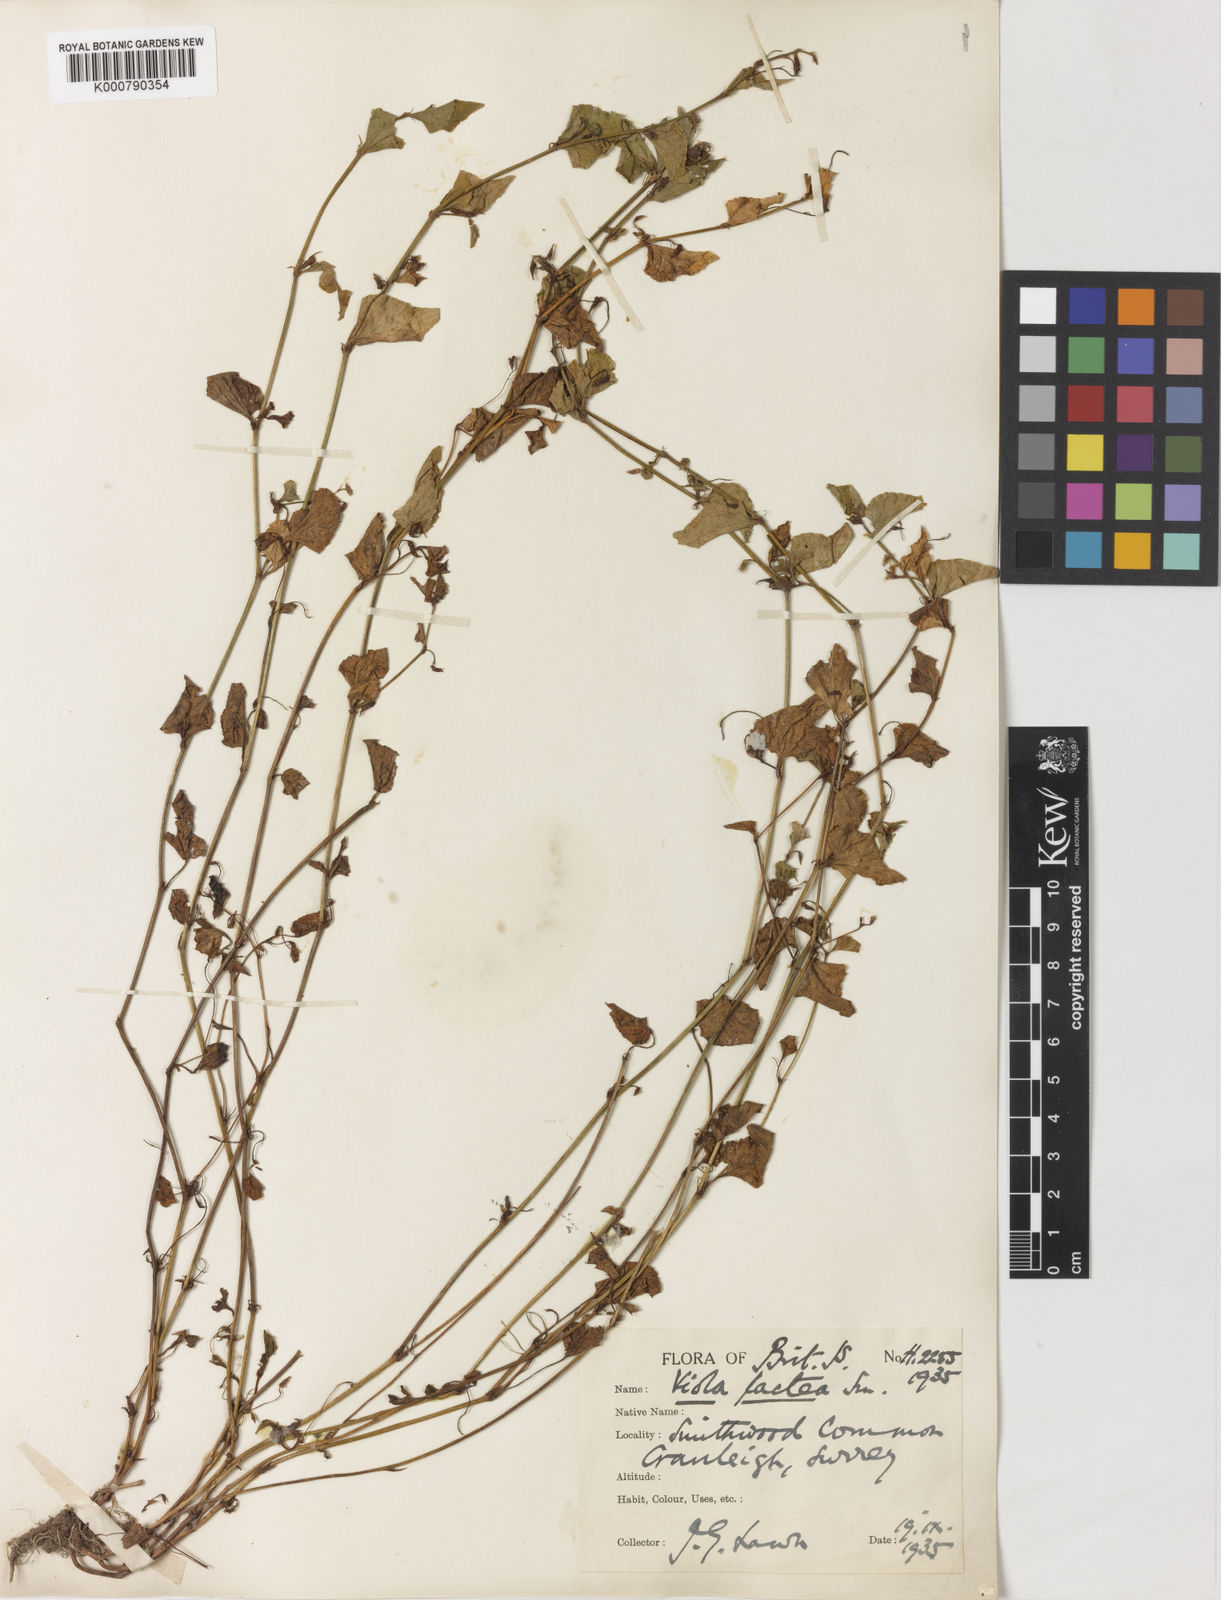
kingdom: Plantae
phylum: Tracheophyta
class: Magnoliopsida
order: Malpighiales
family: Violaceae
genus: Viola
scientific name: Viola lactea
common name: Pale dog-violet
